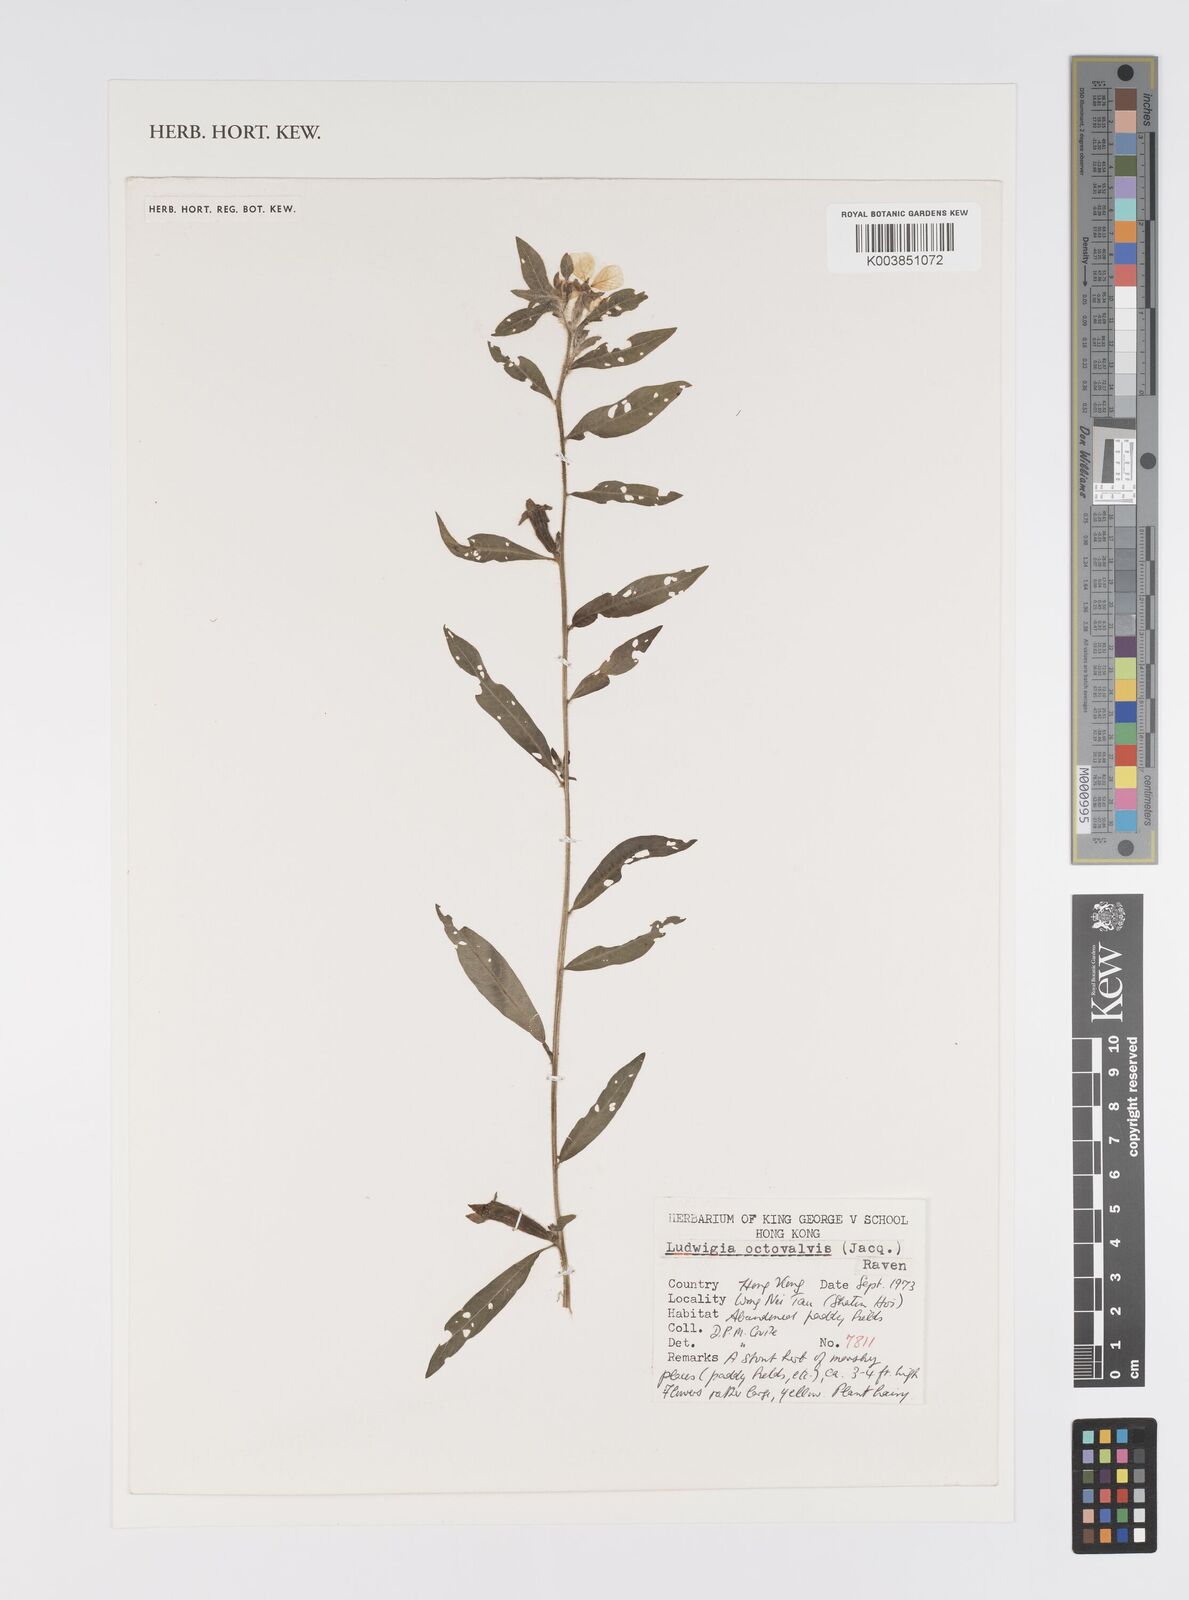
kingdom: Plantae
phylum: Tracheophyta
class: Magnoliopsida
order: Myrtales
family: Onagraceae
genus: Ludwigia
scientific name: Ludwigia octovalvis
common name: Water-primrose
